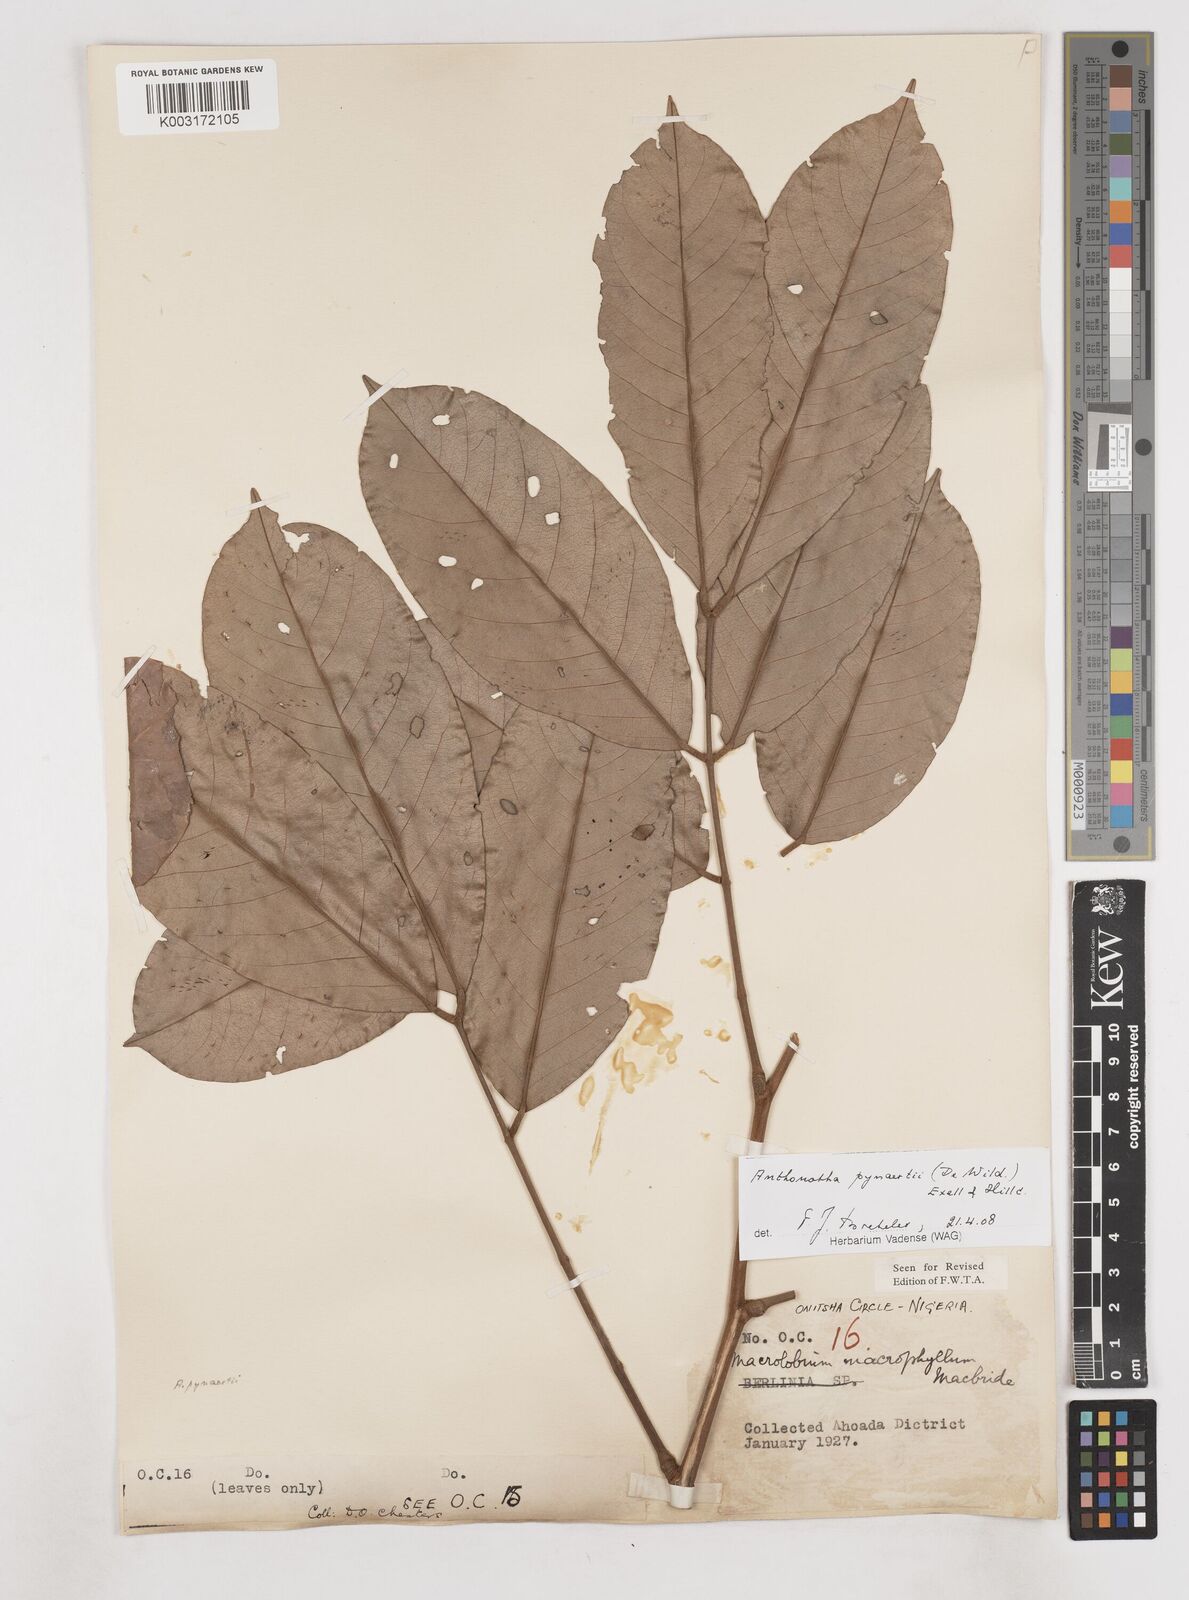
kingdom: Plantae
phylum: Tracheophyta
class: Magnoliopsida
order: Fabales
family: Fabaceae
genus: Anthonotha
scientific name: Anthonotha pynaertii
